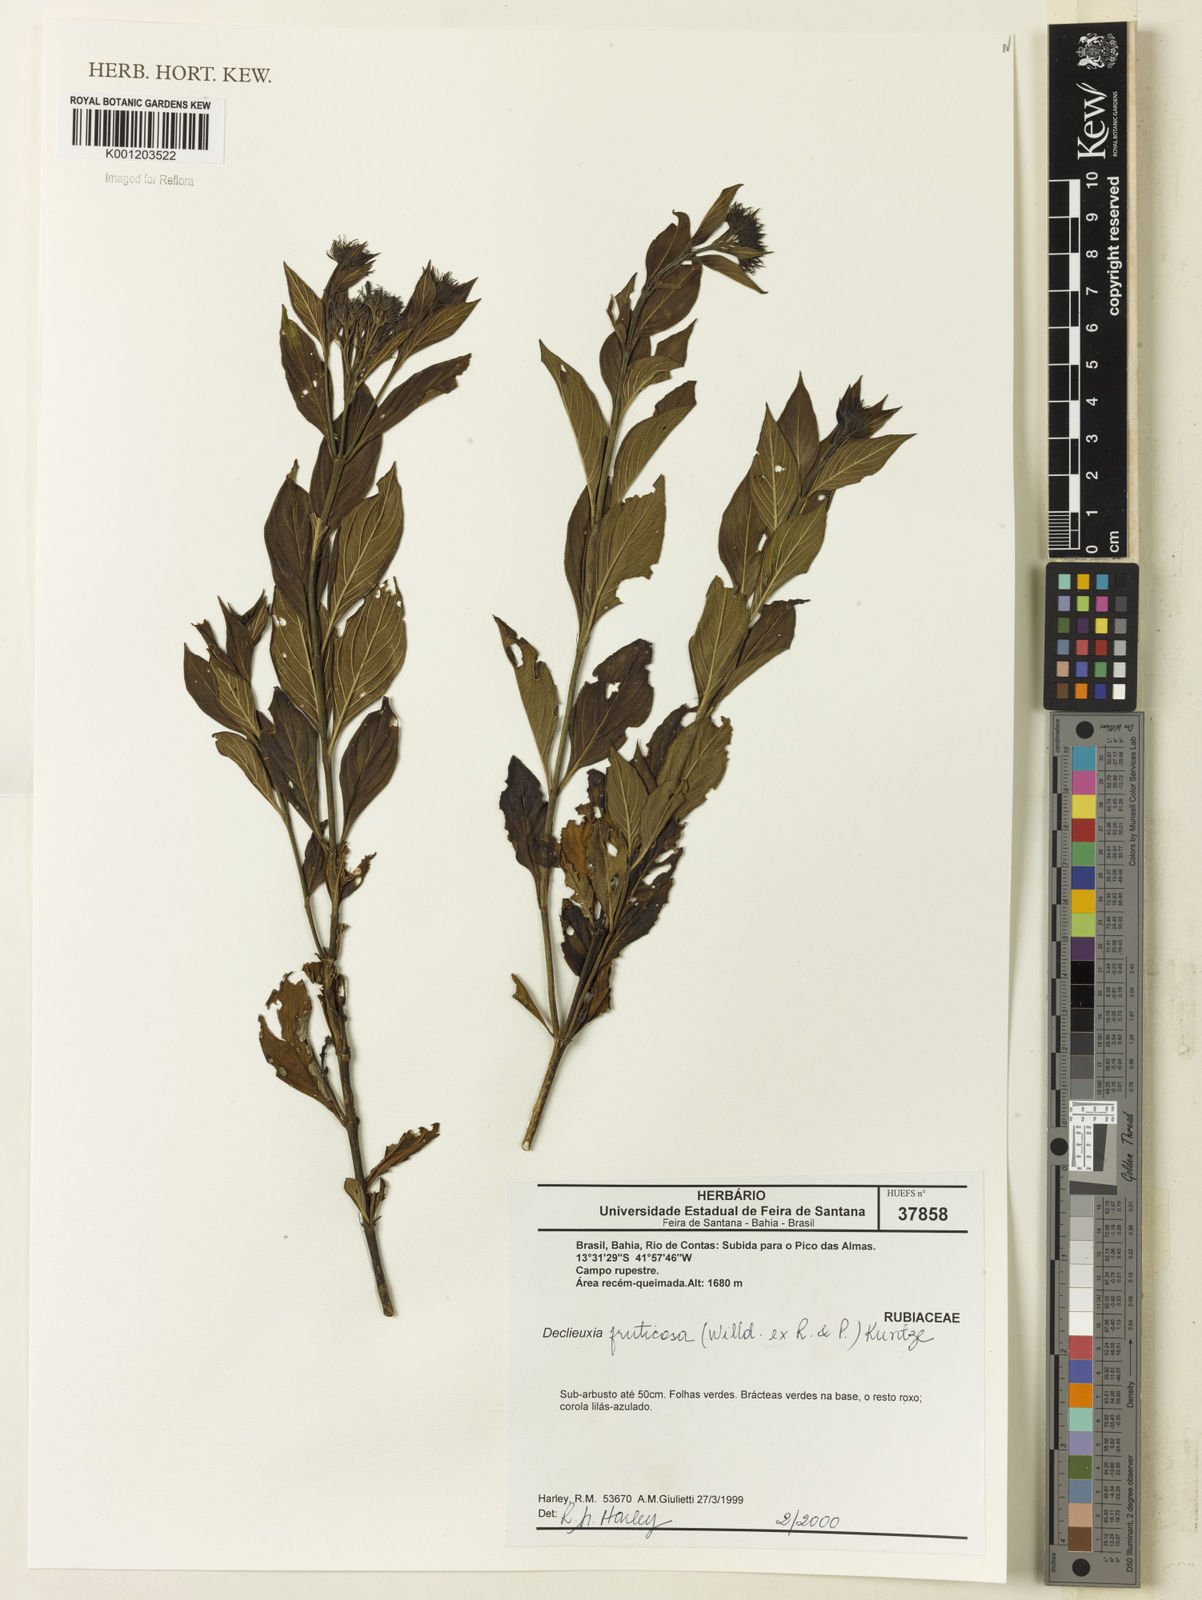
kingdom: Plantae
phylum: Tracheophyta
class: Magnoliopsida
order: Gentianales
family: Rubiaceae
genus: Declieuxia
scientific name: Declieuxia fruticosa
